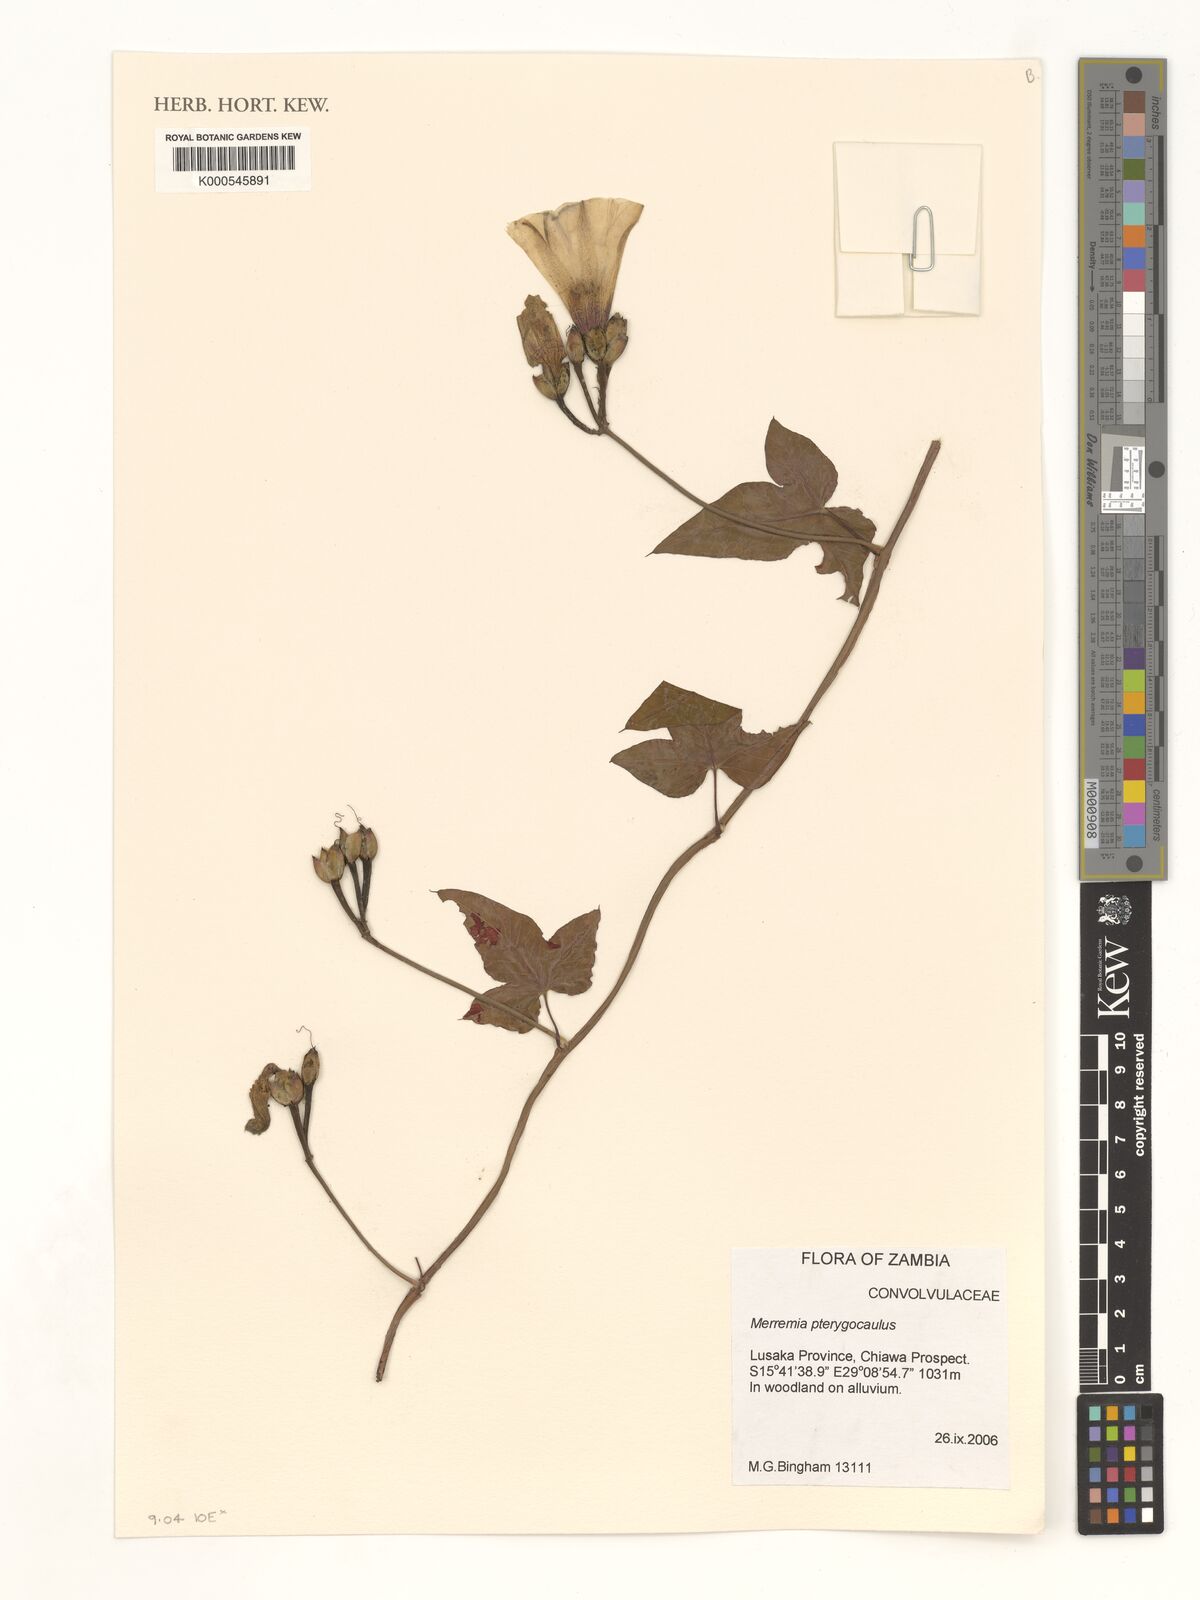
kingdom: Plantae
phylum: Tracheophyta
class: Magnoliopsida
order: Solanales
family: Convolvulaceae
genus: Merremia
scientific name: Merremia pterygocaulos
